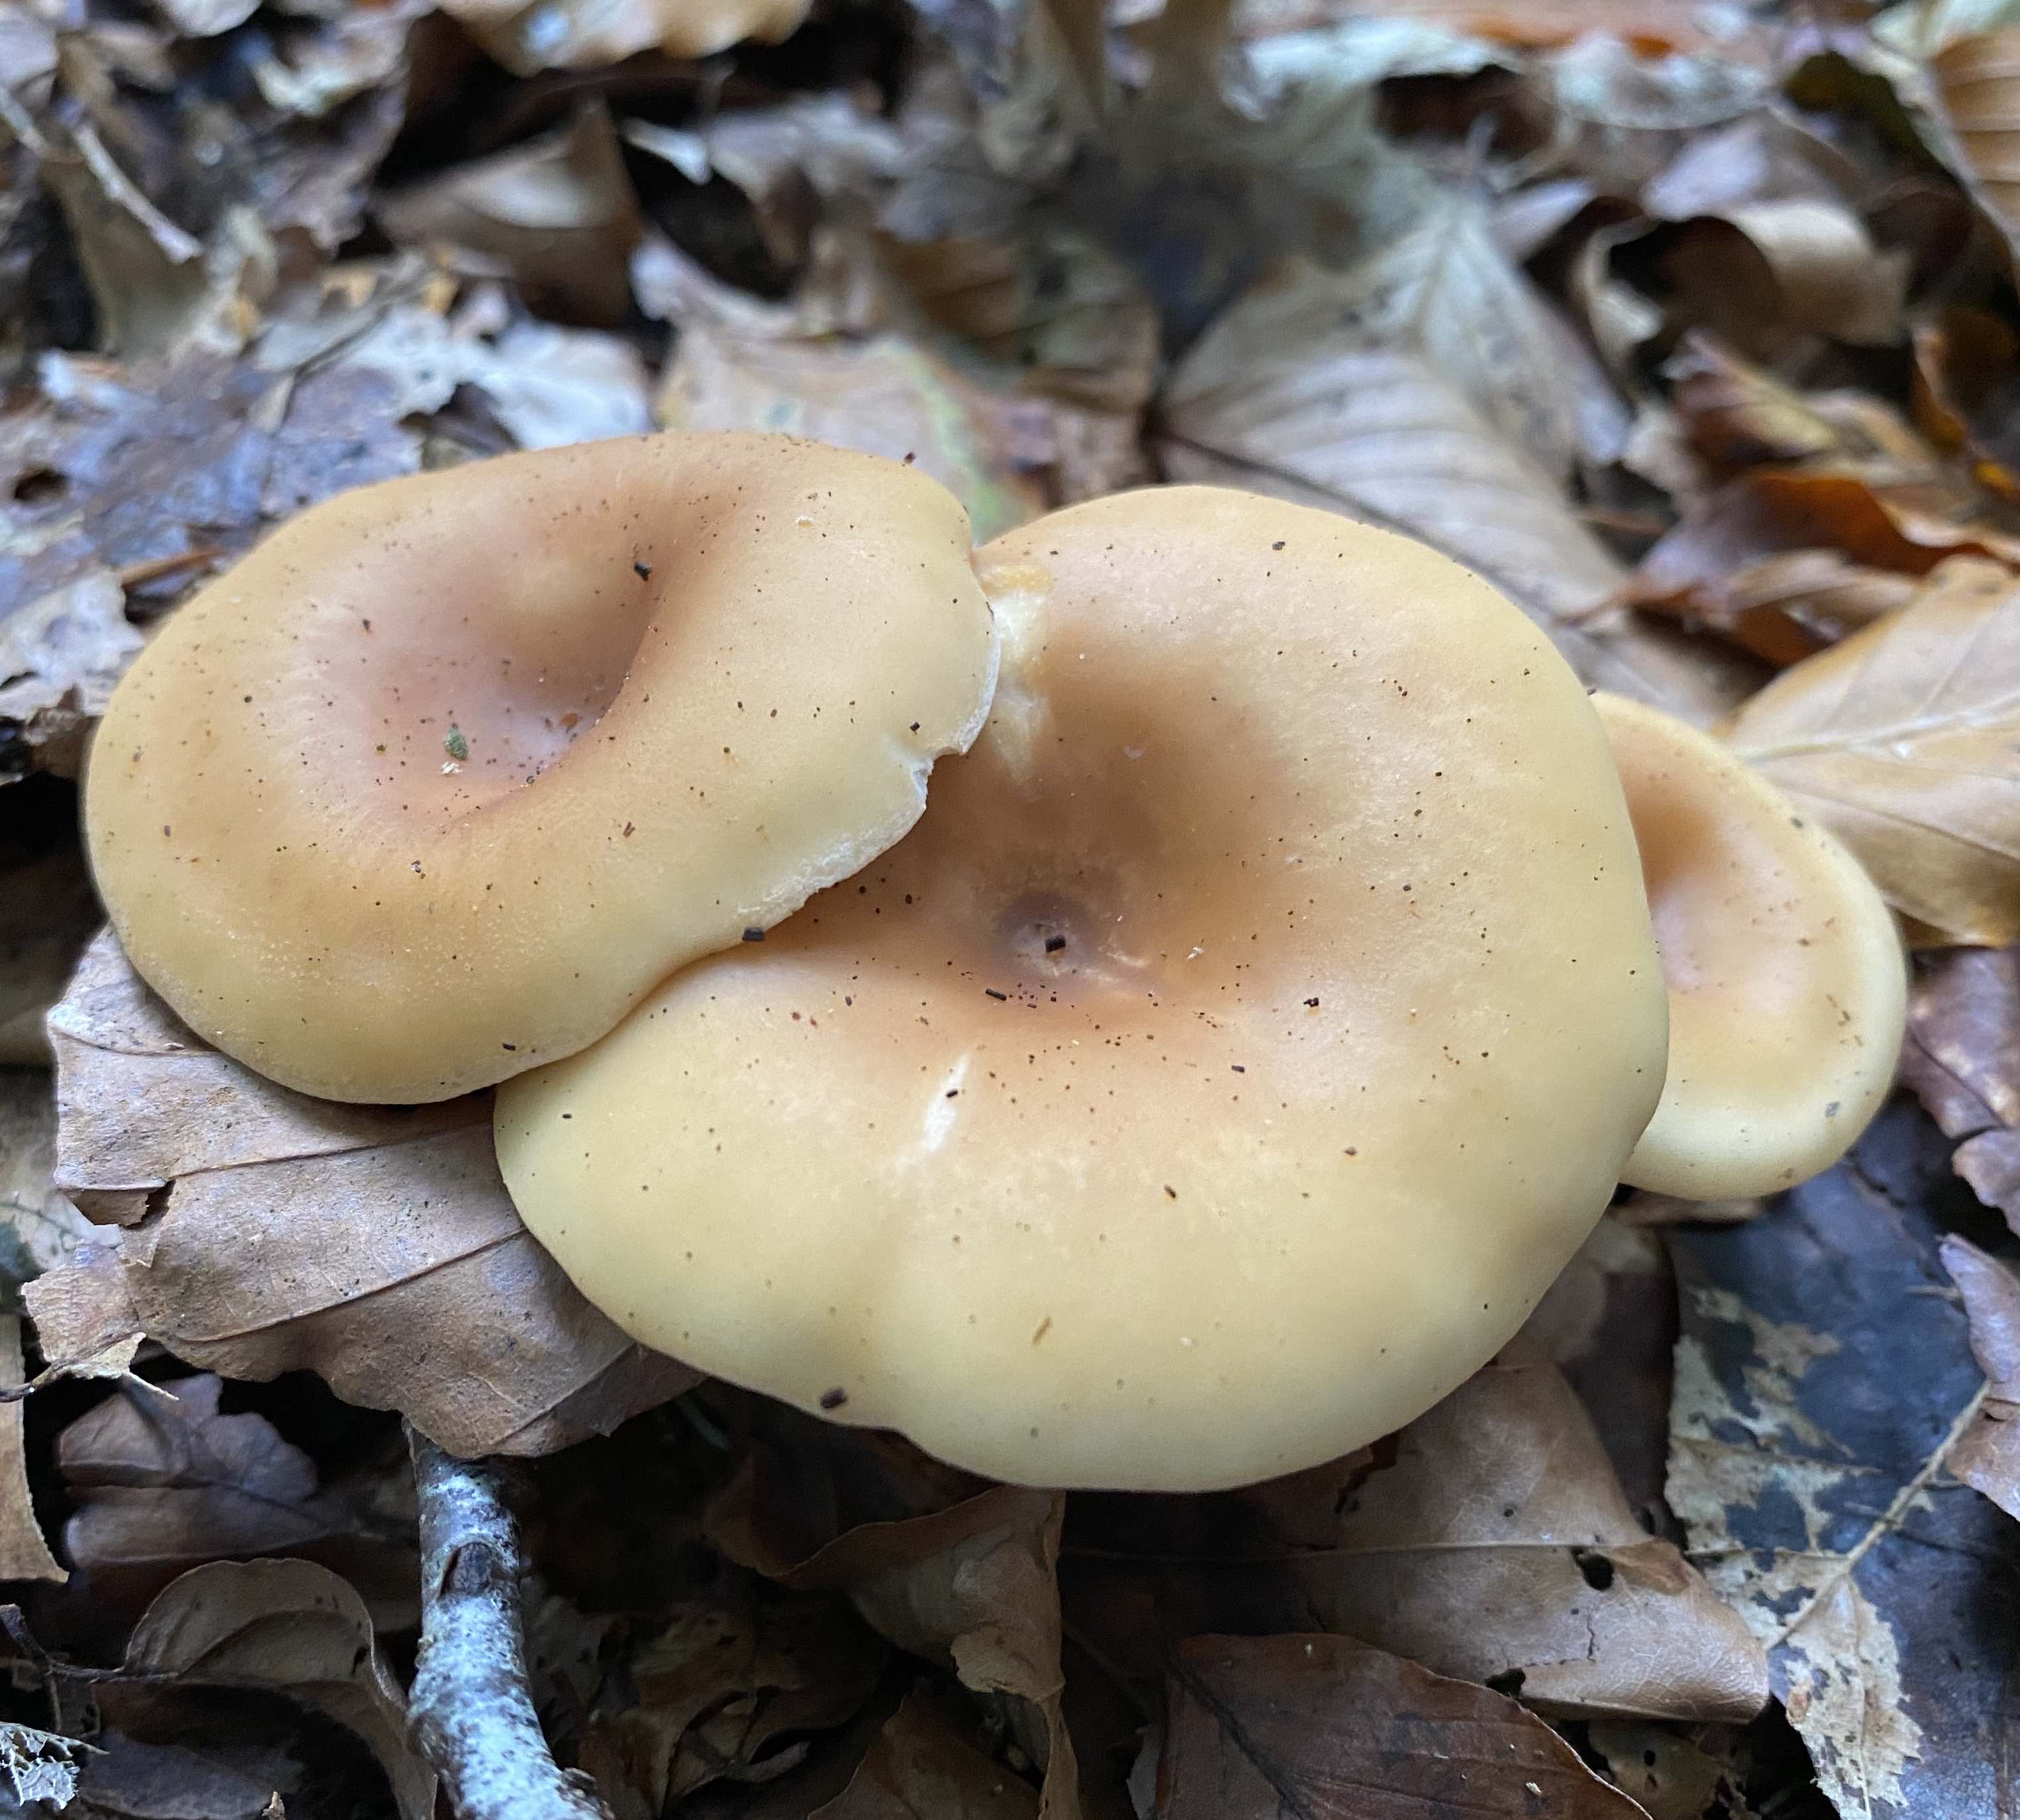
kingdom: Fungi
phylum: Basidiomycota
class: Agaricomycetes
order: Agaricales
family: Tricholomataceae
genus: Paralepista
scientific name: Paralepista flaccida
